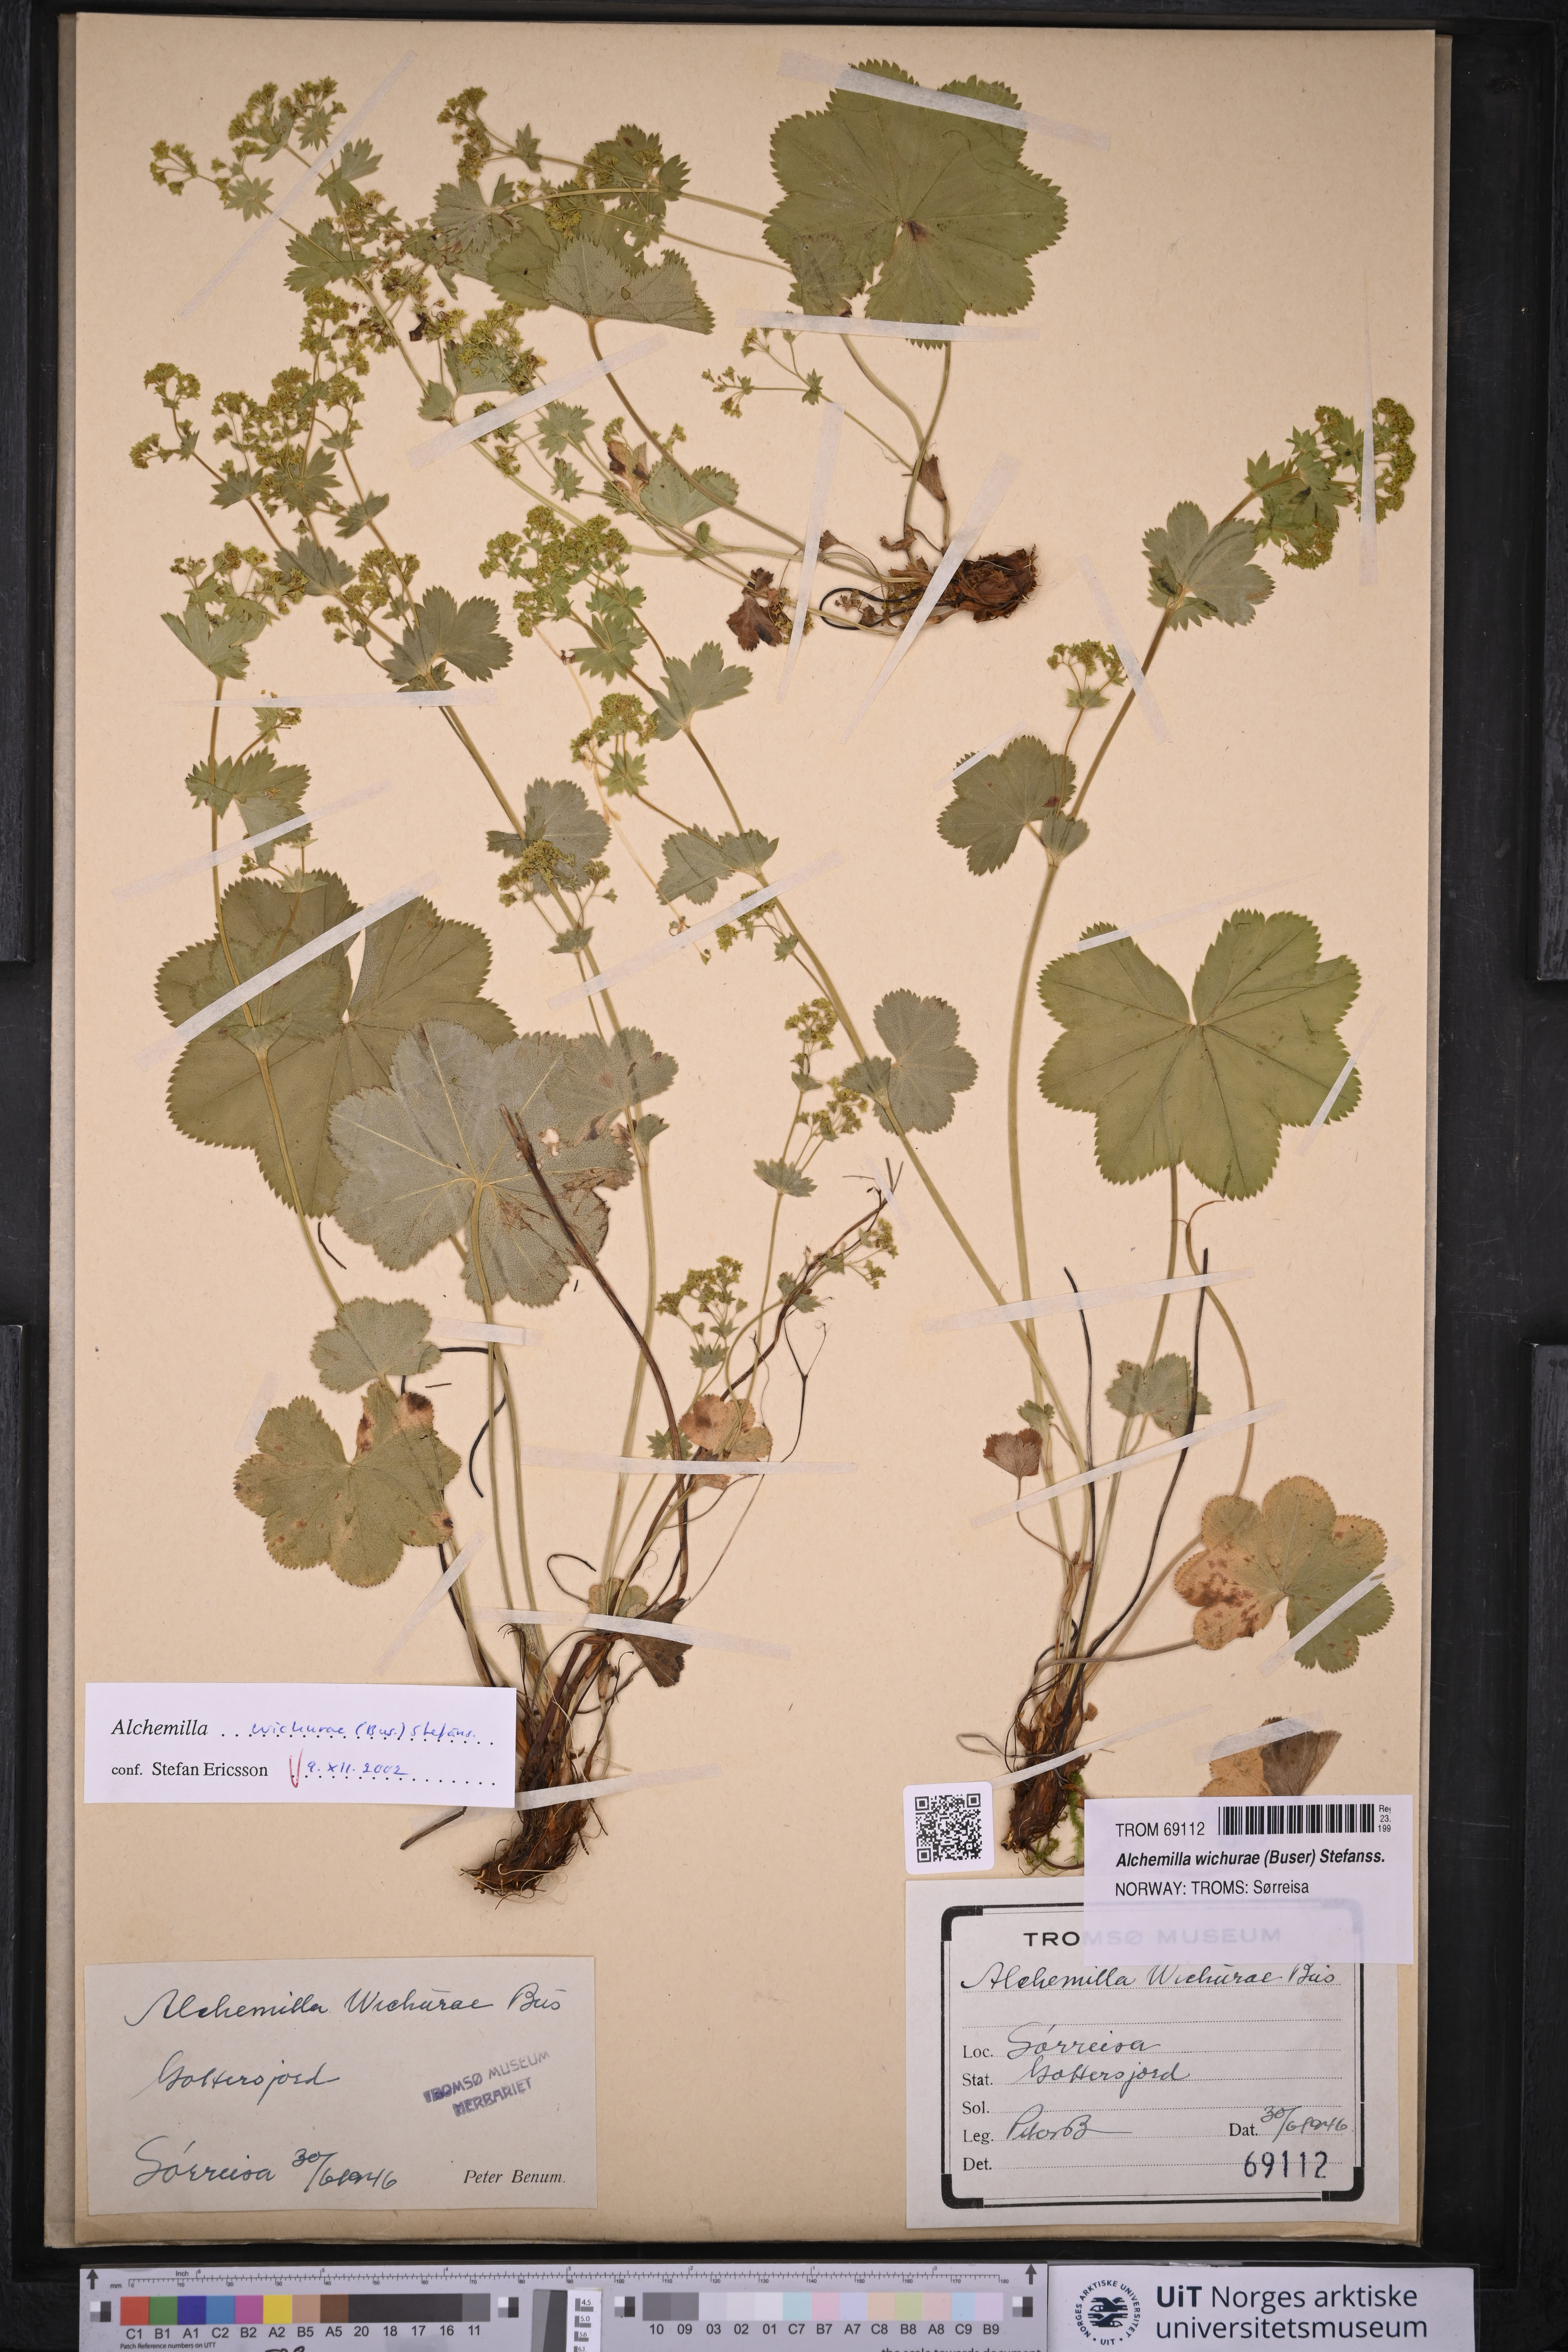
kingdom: Plantae
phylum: Tracheophyta
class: Magnoliopsida
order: Rosales
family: Rosaceae
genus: Alchemilla
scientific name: Alchemilla wichurae
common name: Rock lady's mantle
